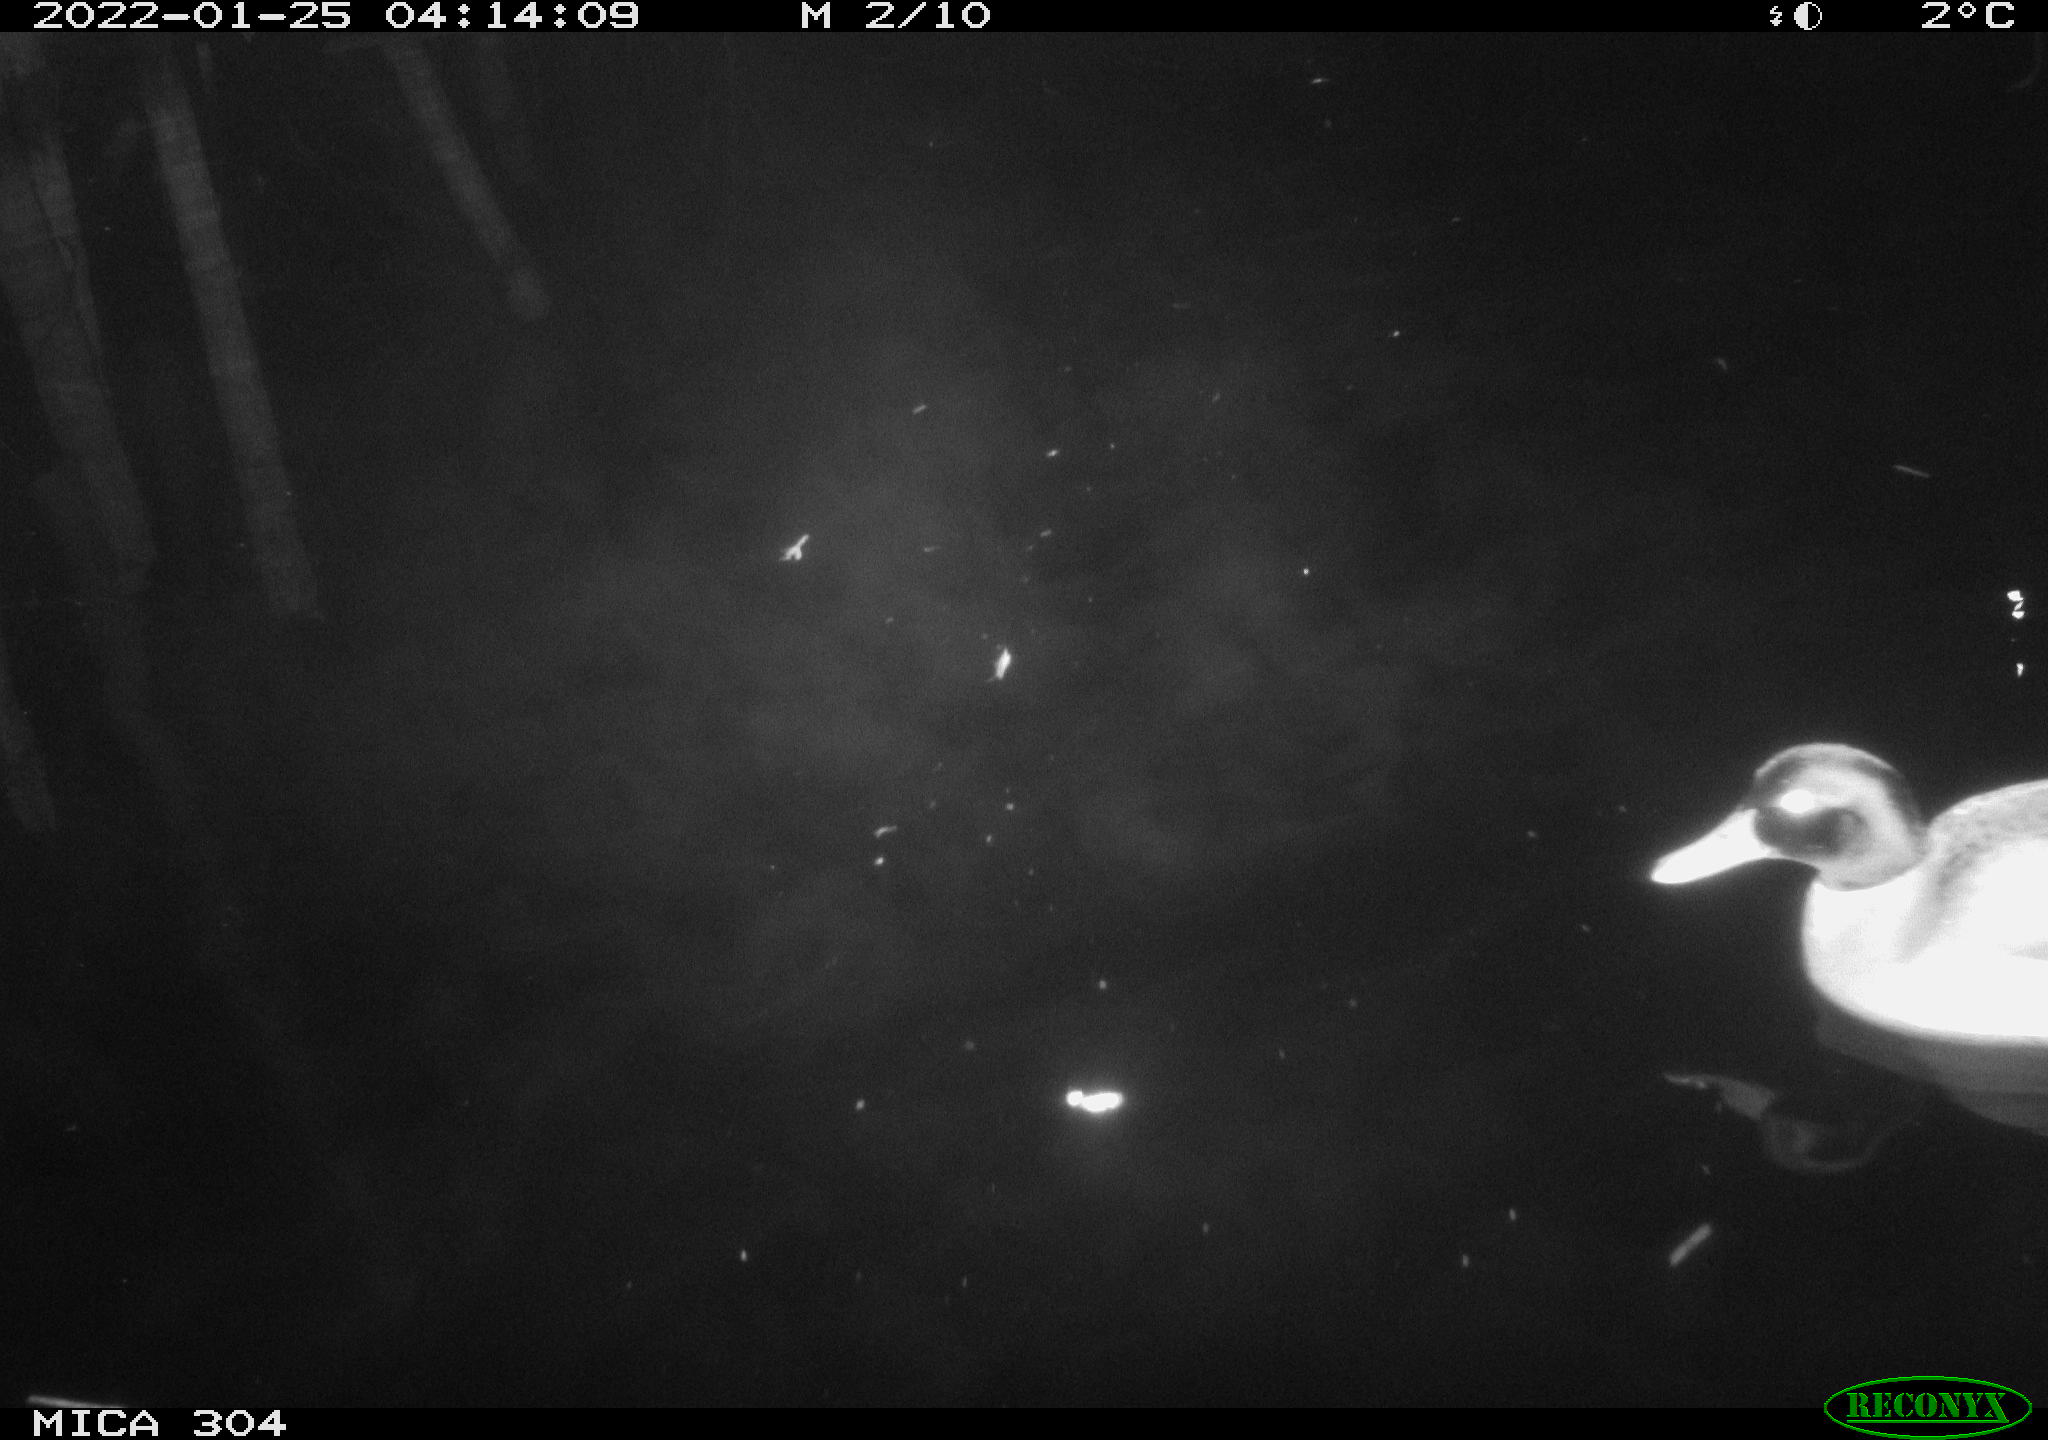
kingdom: Animalia
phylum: Chordata
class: Aves
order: Anseriformes
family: Anatidae
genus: Anas
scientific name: Anas
